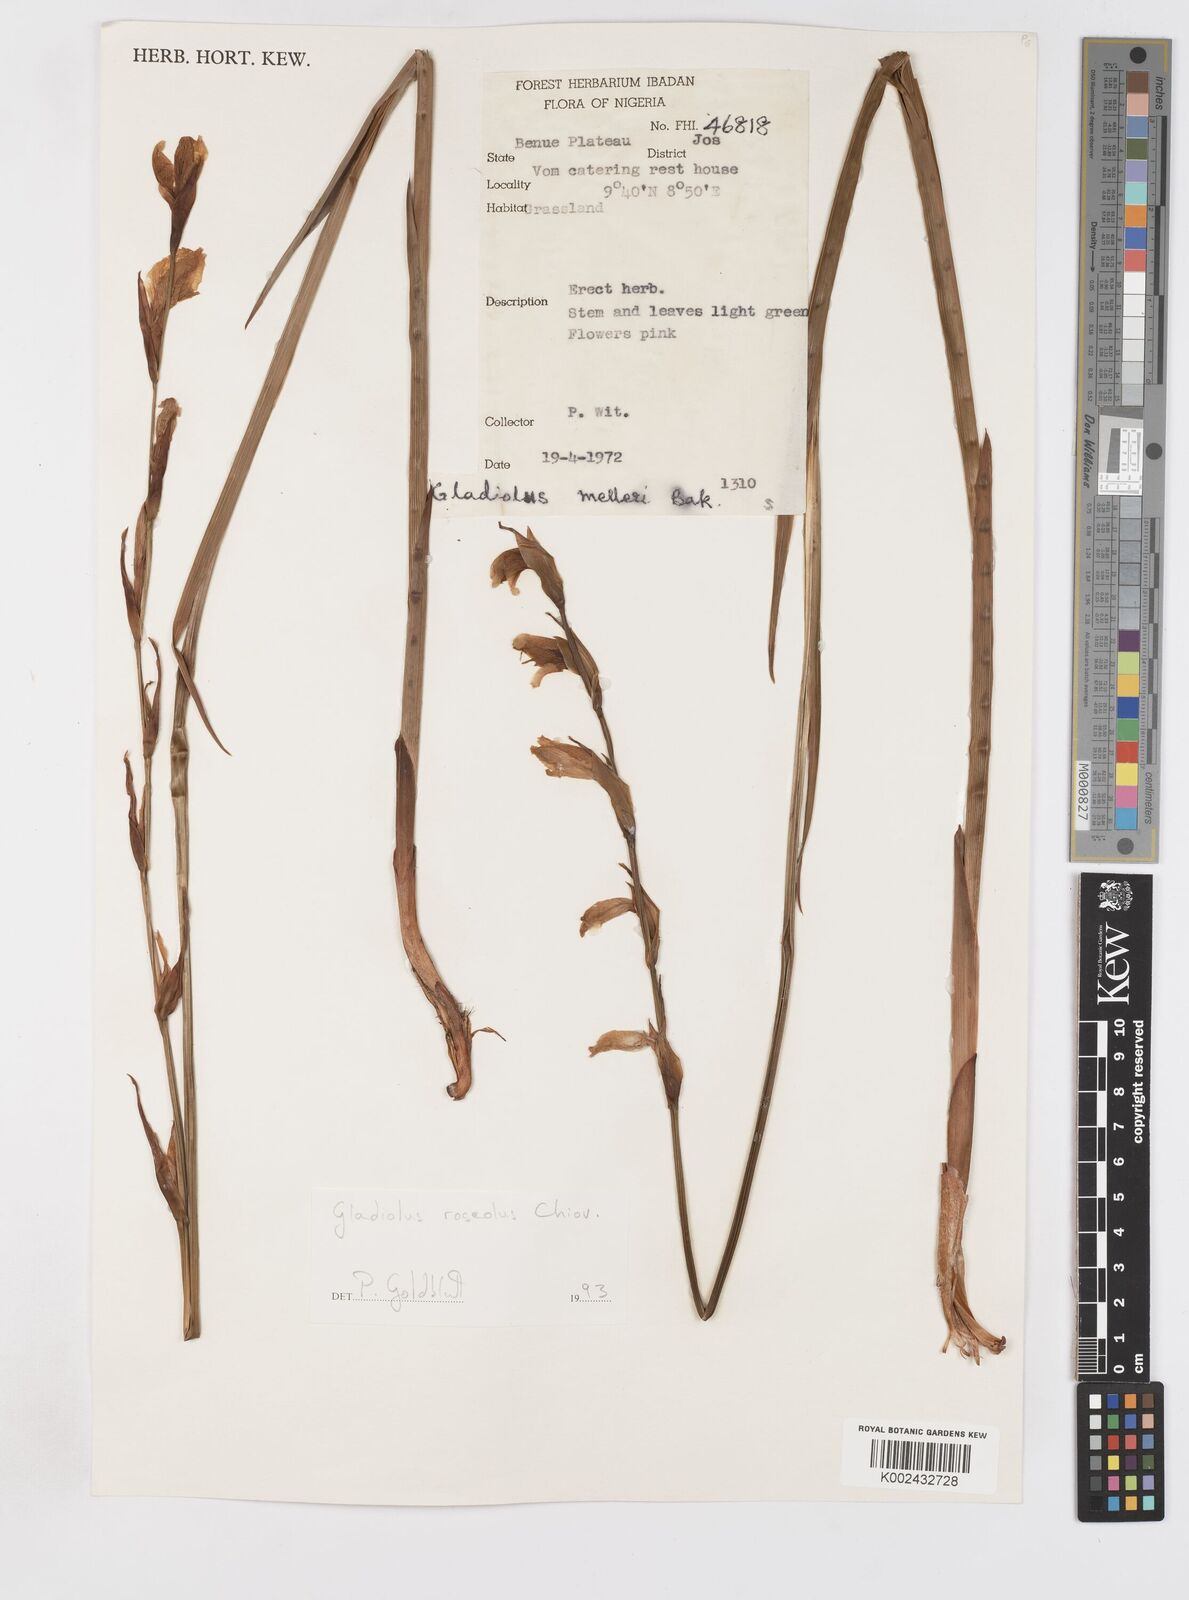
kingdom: Plantae
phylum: Tracheophyta
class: Liliopsida
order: Asparagales
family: Iridaceae
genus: Gladiolus
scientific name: Gladiolus roseolus
